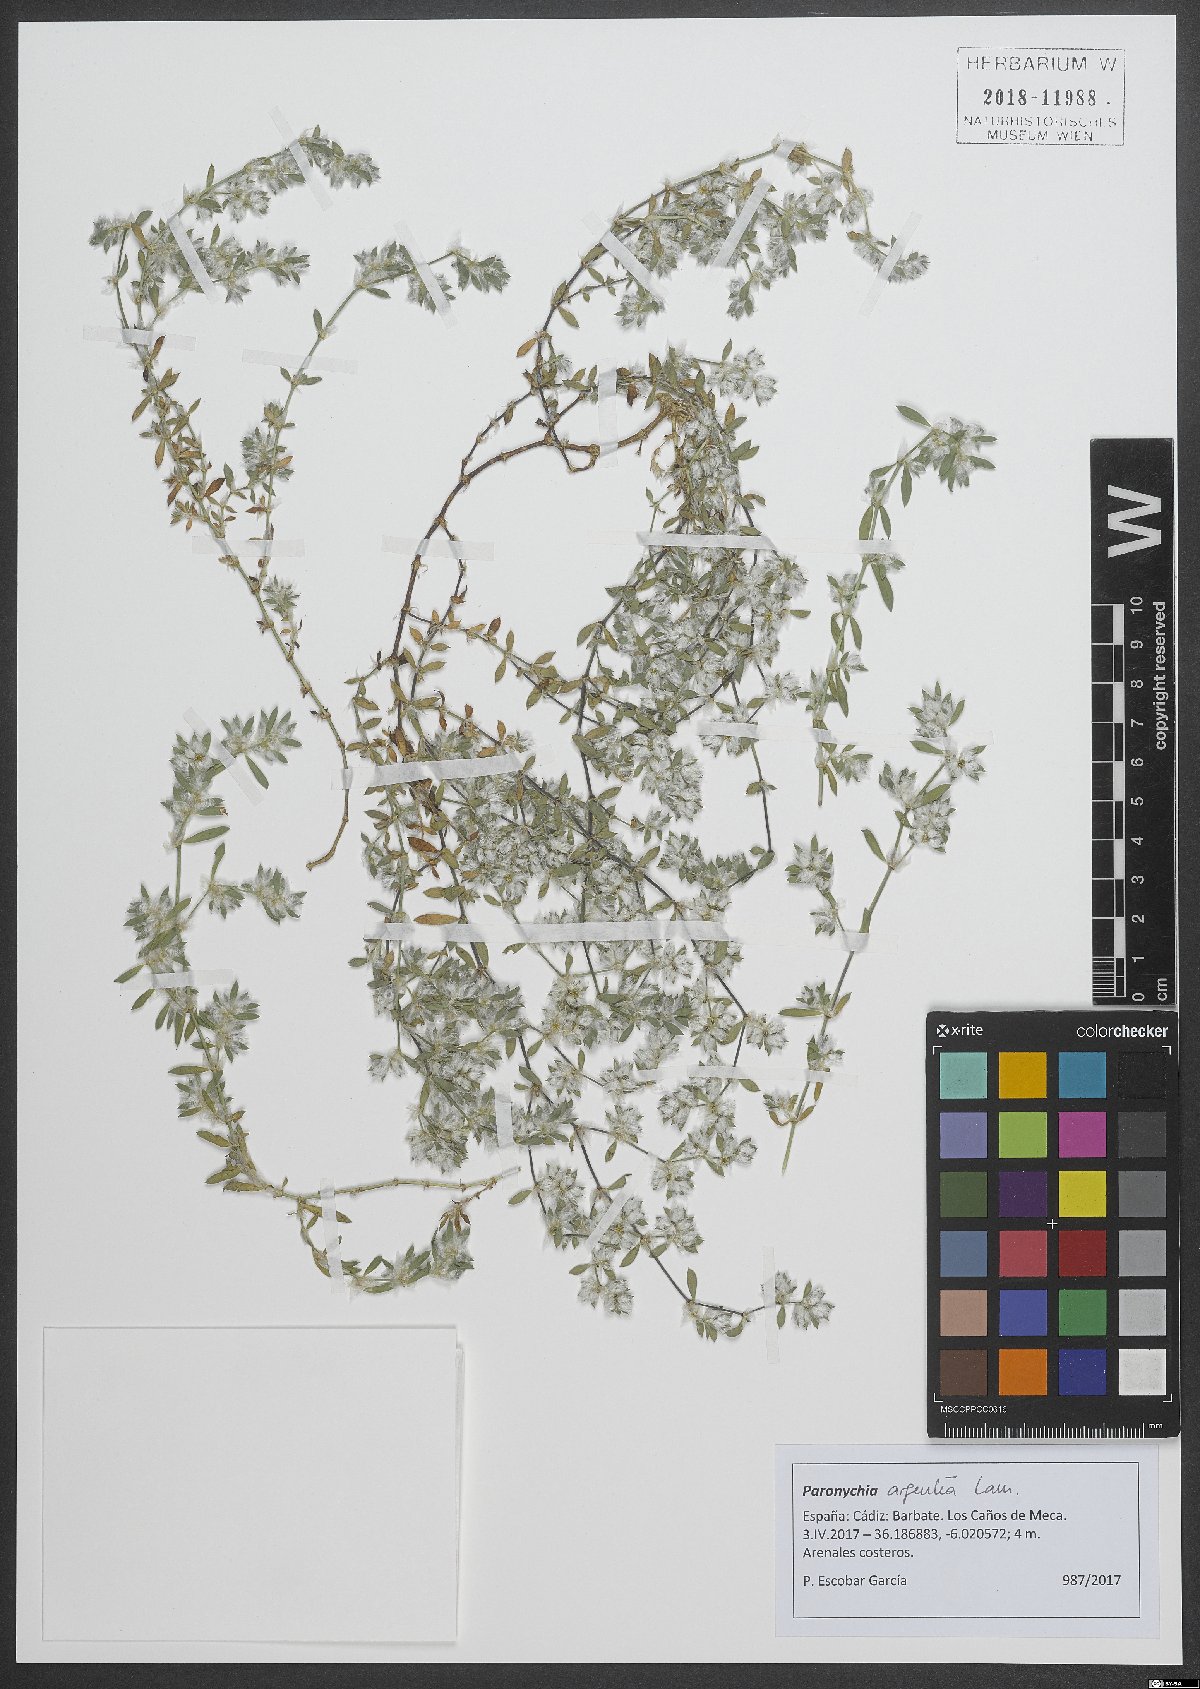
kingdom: Plantae
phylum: Tracheophyta
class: Magnoliopsida
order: Caryophyllales
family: Caryophyllaceae
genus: Paronychia
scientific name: Paronychia argentea
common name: Silver nailroot
